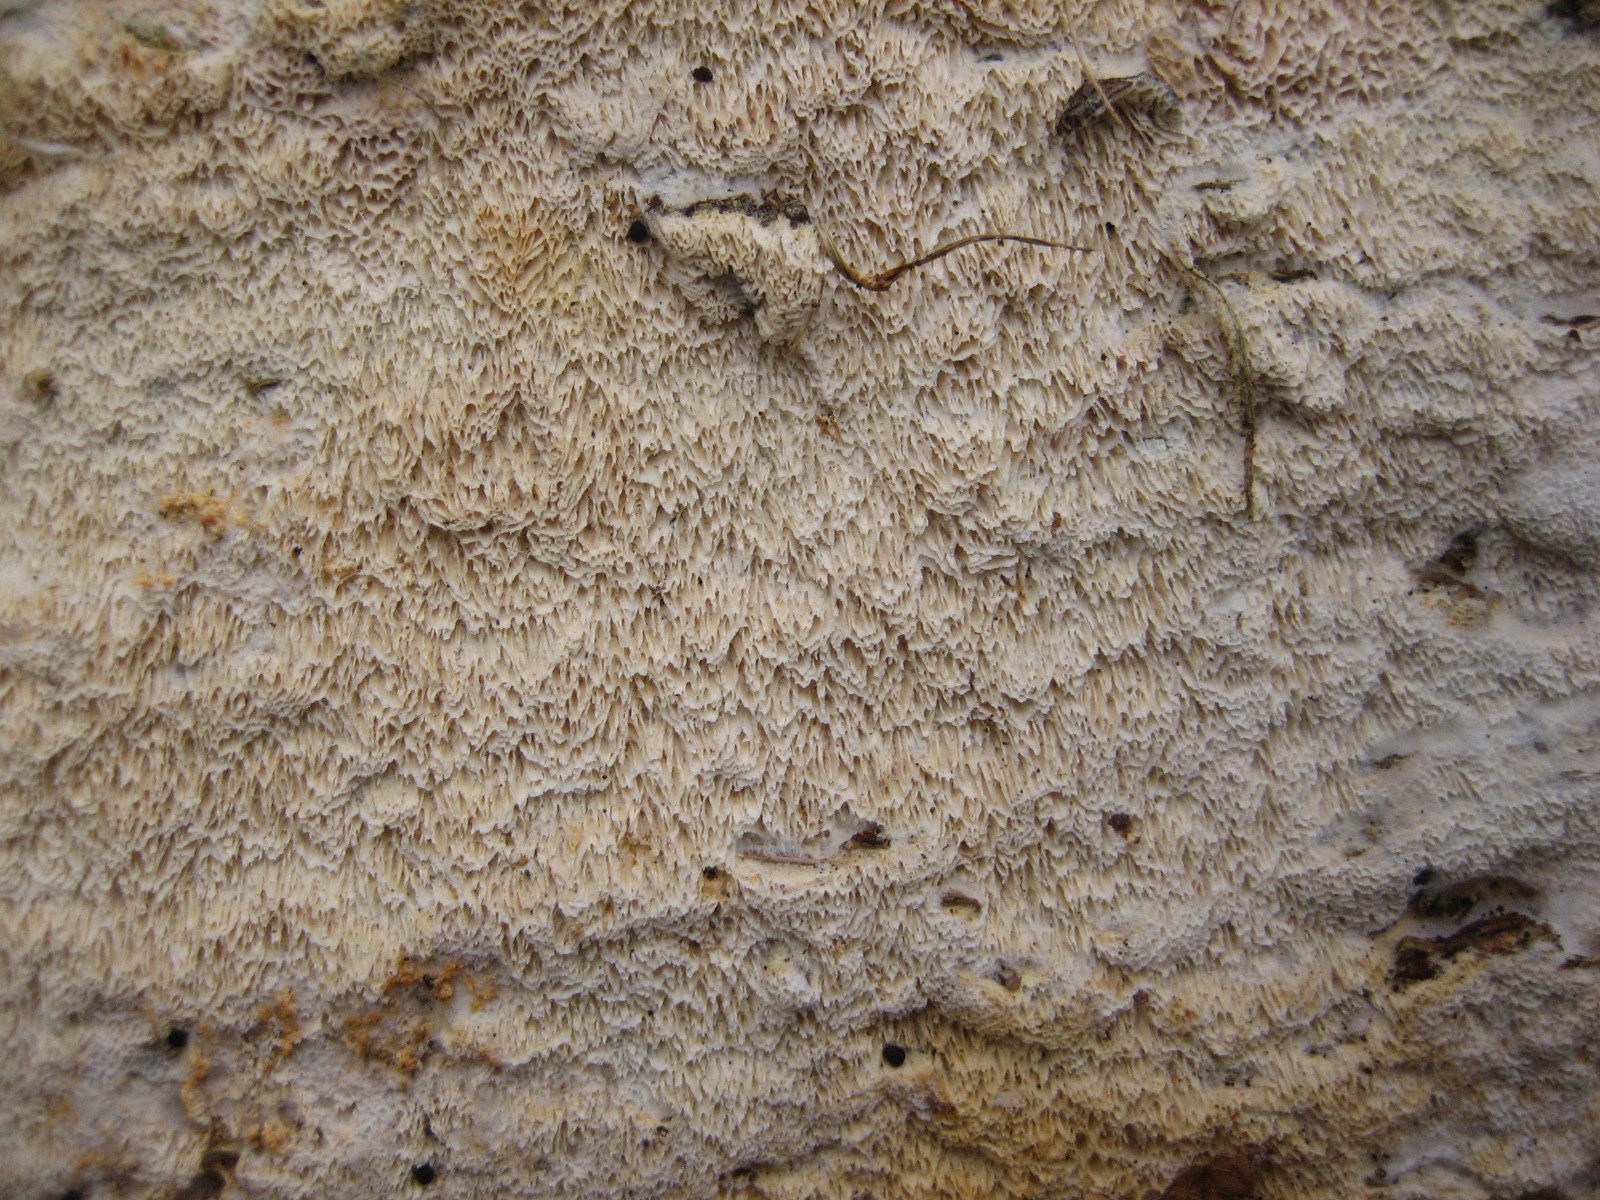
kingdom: Fungi
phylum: Basidiomycota
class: Agaricomycetes
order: Hymenochaetales
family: Schizoporaceae
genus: Xylodon
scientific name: Xylodon
